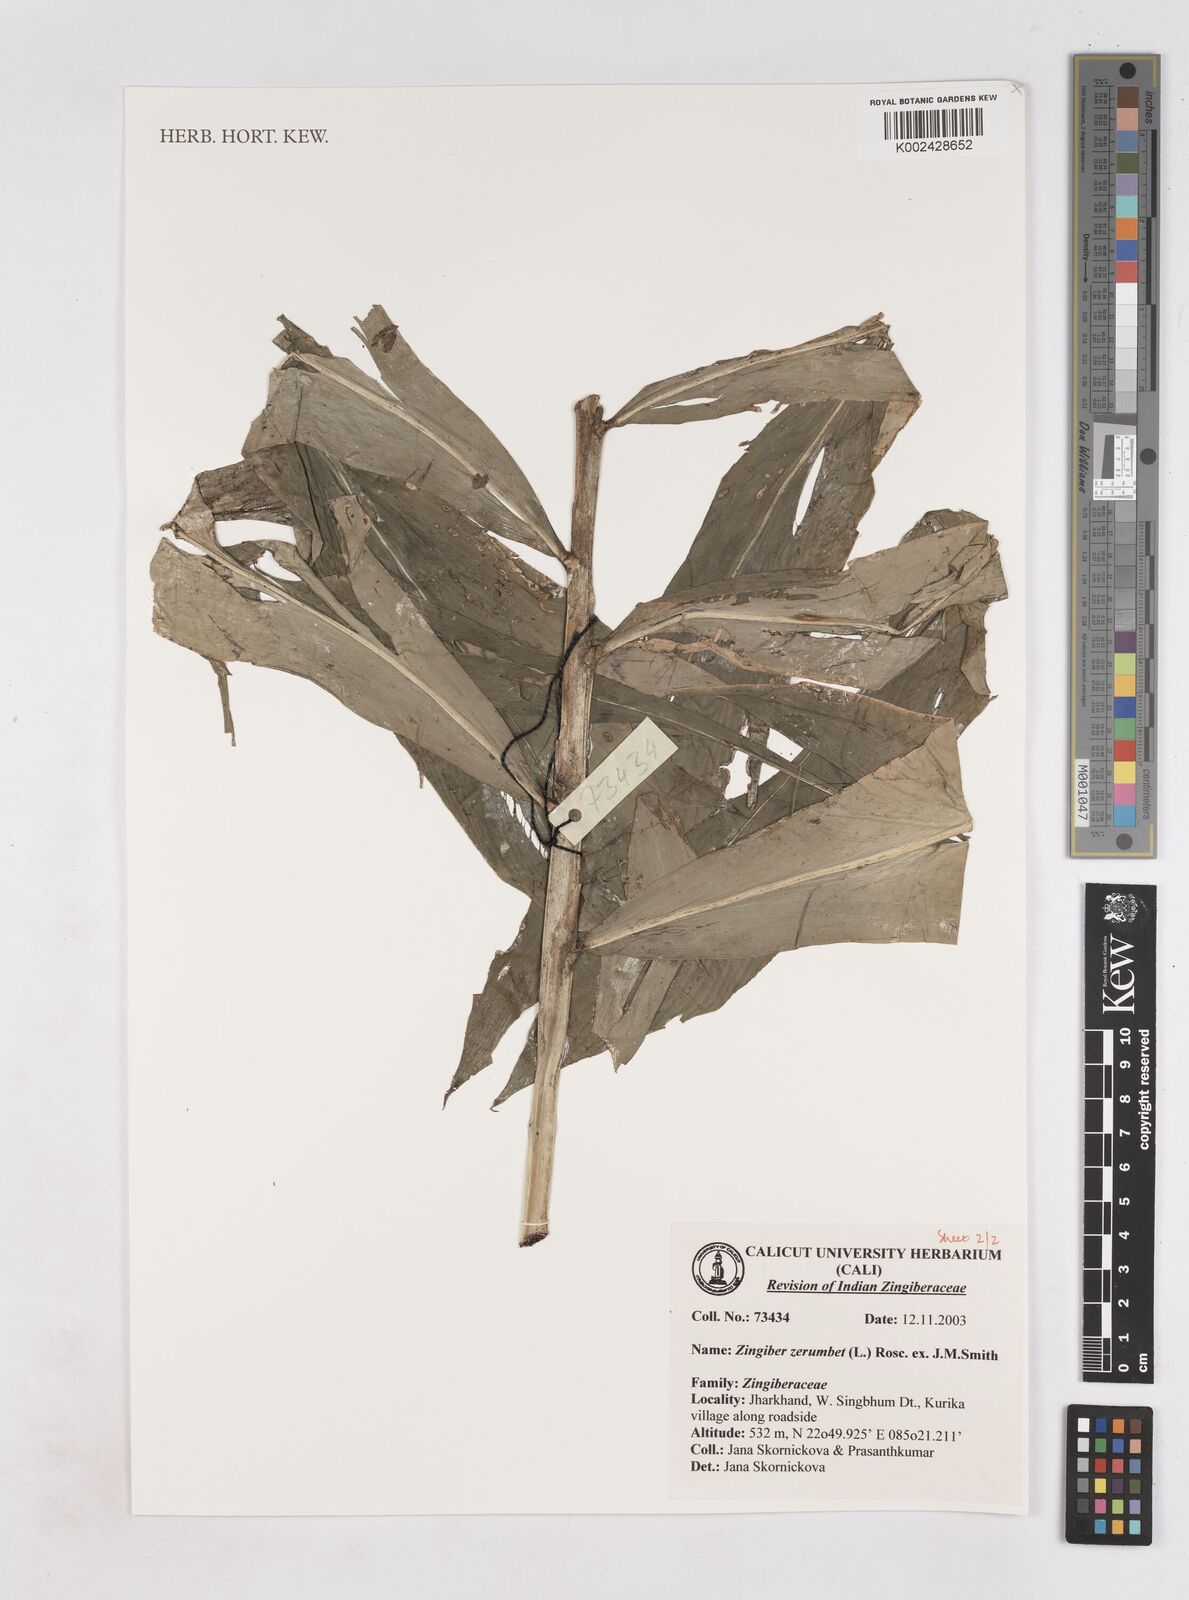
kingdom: Plantae
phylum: Tracheophyta
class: Liliopsida
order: Zingiberales
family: Zingiberaceae
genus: Zingiber
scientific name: Zingiber zerumbet
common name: Bitter ginger
